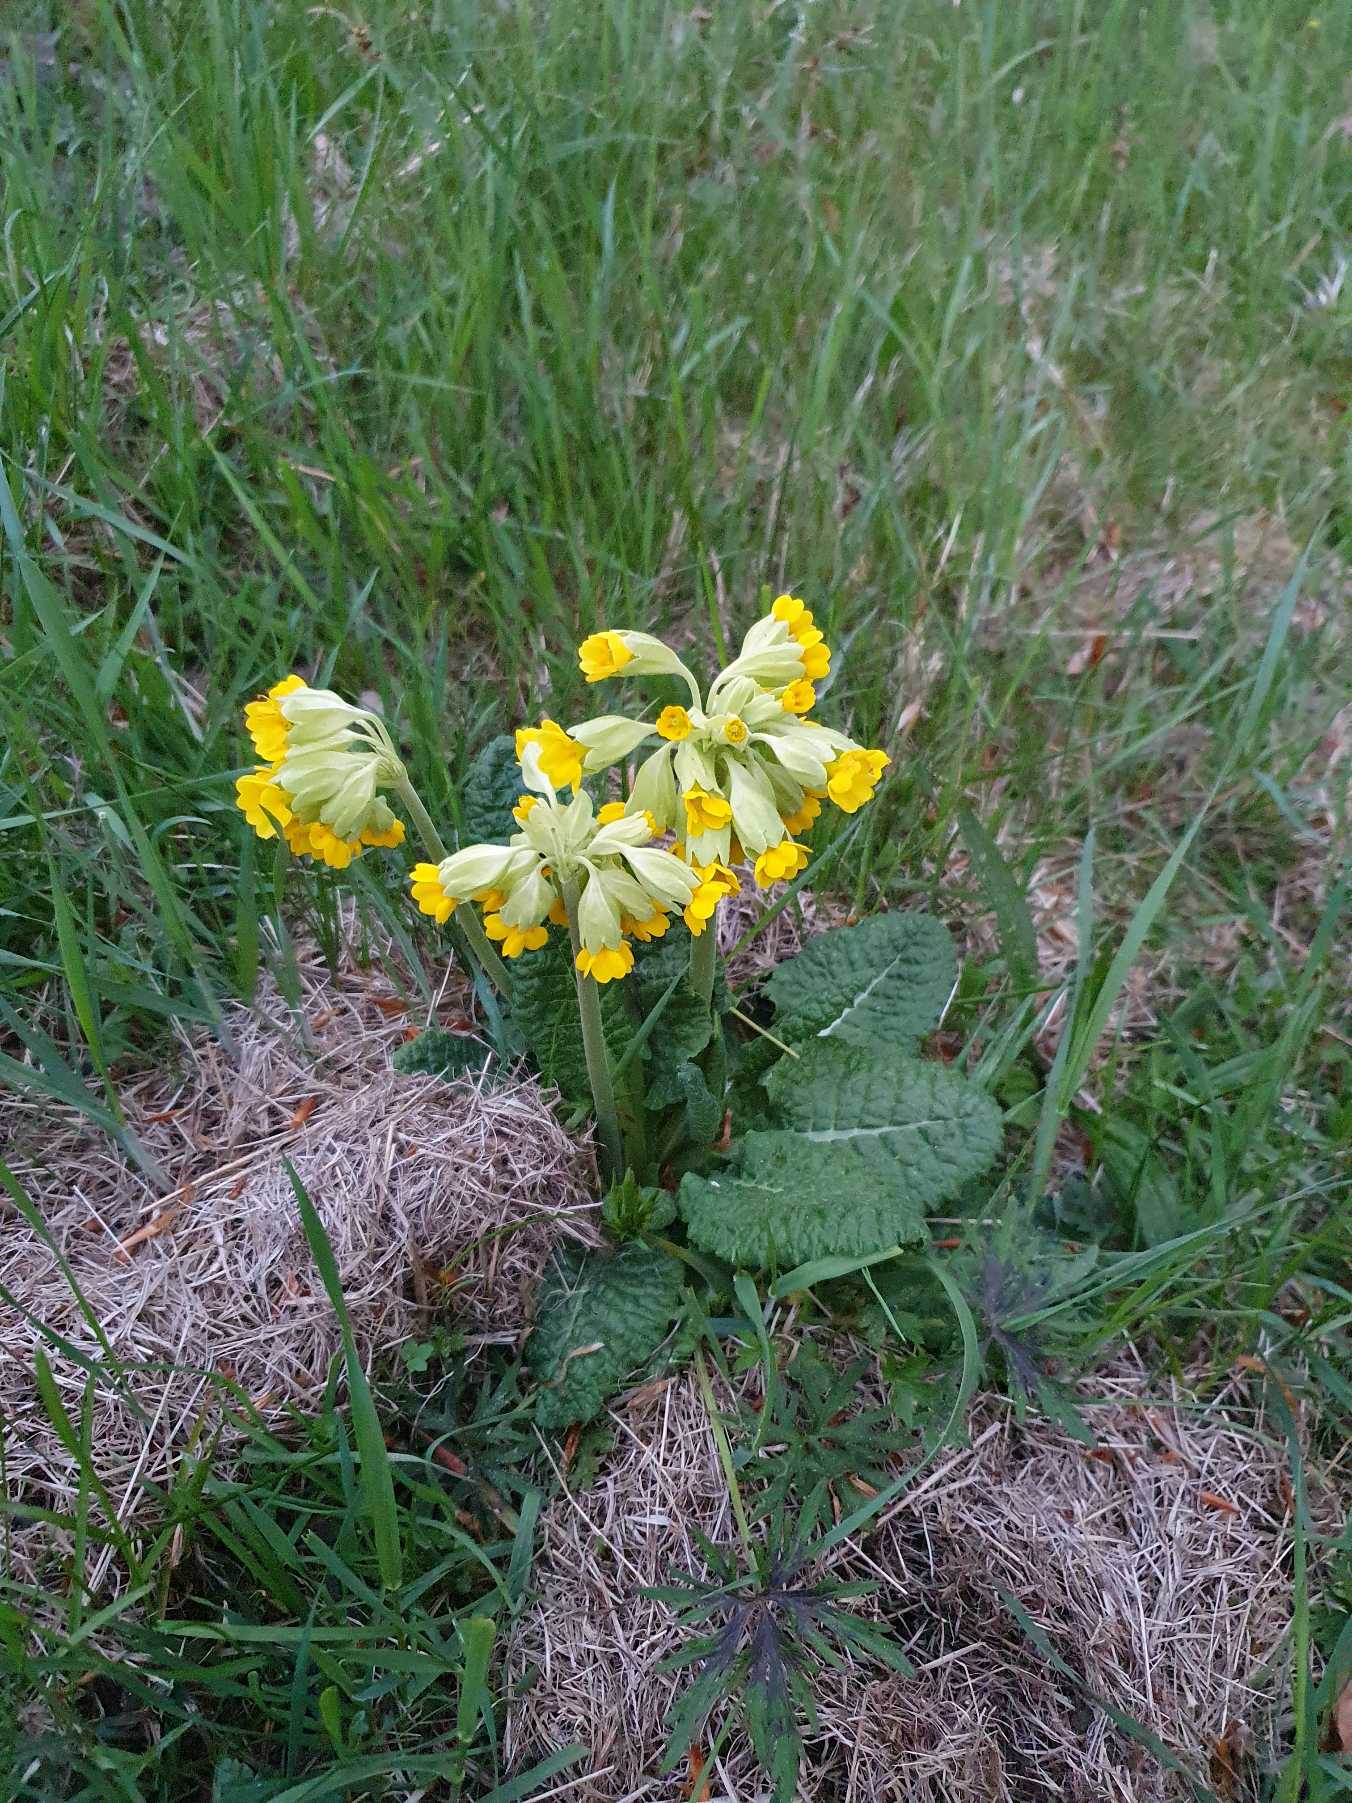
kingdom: Plantae
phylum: Tracheophyta
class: Magnoliopsida
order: Ericales
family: Primulaceae
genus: Primula
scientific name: Primula veris
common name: Hulkravet kodriver
